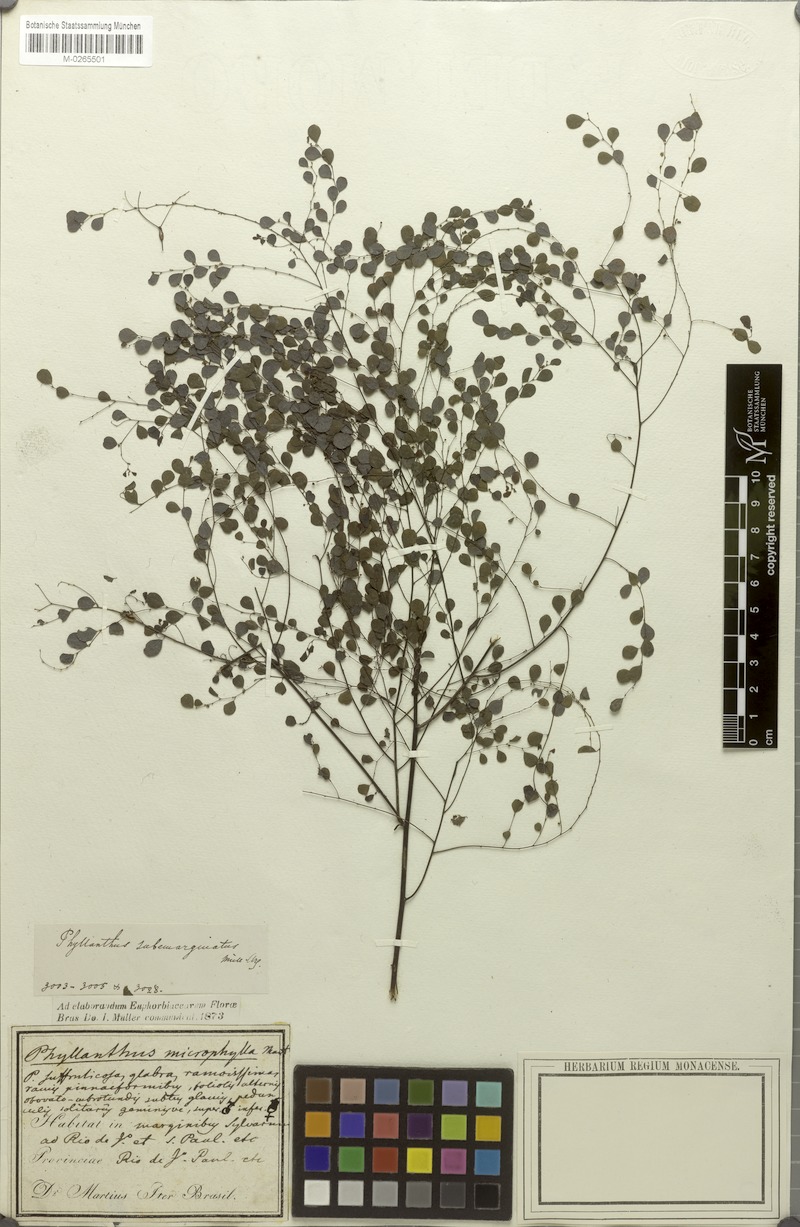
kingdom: Plantae
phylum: Tracheophyta
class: Magnoliopsida
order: Malpighiales
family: Phyllanthaceae
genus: Phyllanthus
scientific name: Phyllanthus subemarginatus
